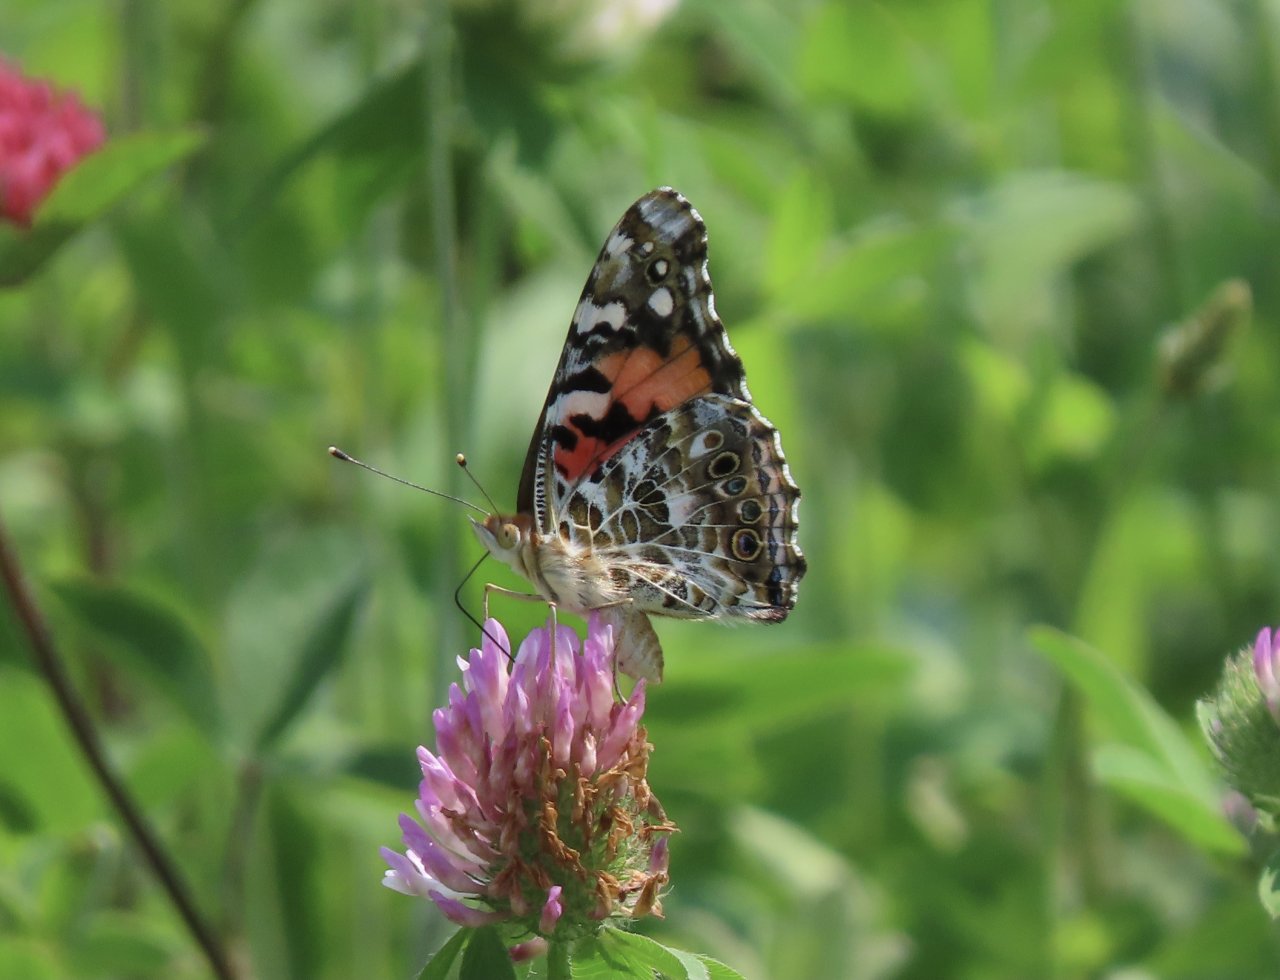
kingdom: Animalia
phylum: Arthropoda
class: Insecta
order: Lepidoptera
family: Nymphalidae
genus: Vanessa
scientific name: Vanessa cardui
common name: Painted Lady
